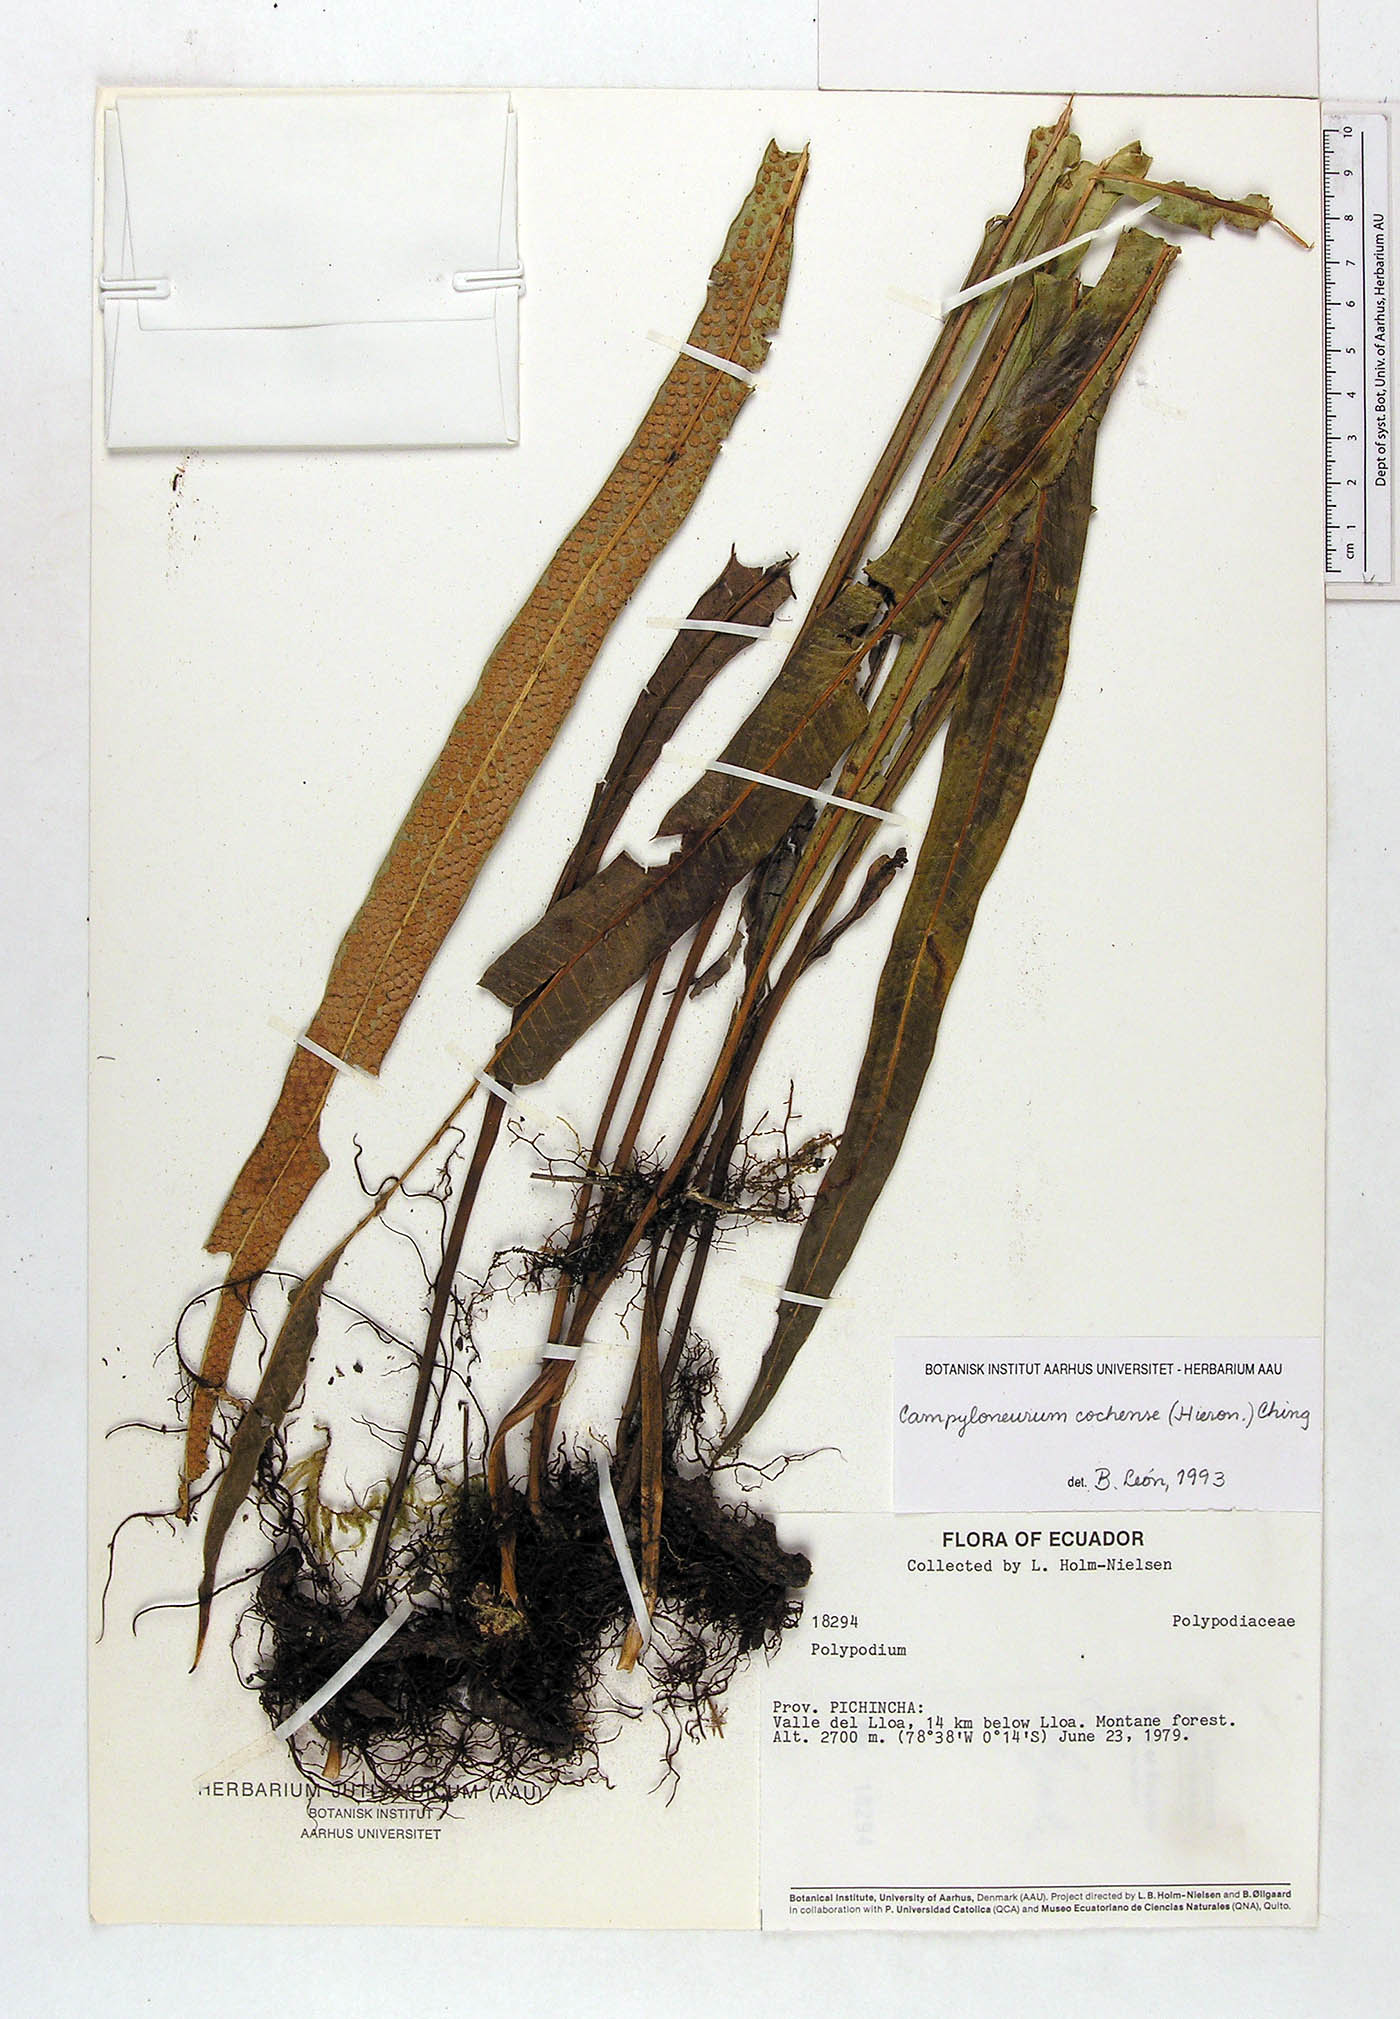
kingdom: Plantae
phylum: Tracheophyta
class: Polypodiopsida
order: Polypodiales
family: Polypodiaceae
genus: Campyloneurum
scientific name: Campyloneurum cochense
